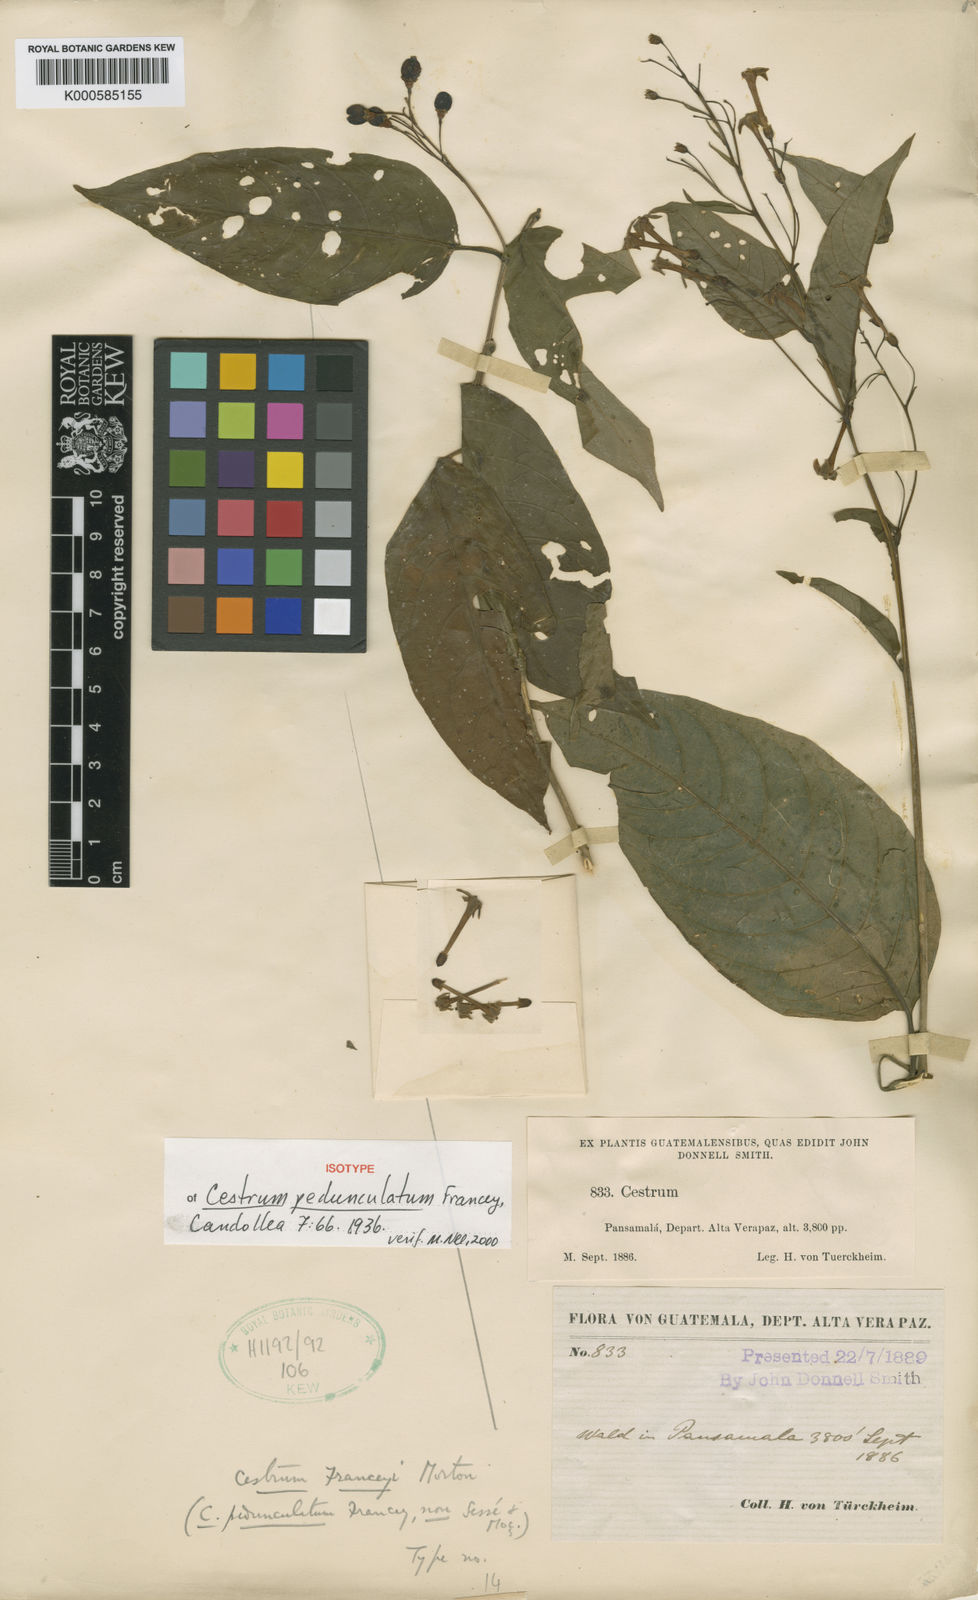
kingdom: Plantae
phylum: Tracheophyta
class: Magnoliopsida
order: Solanales
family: Solanaceae
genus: Cestrum
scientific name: Cestrum franceyi
